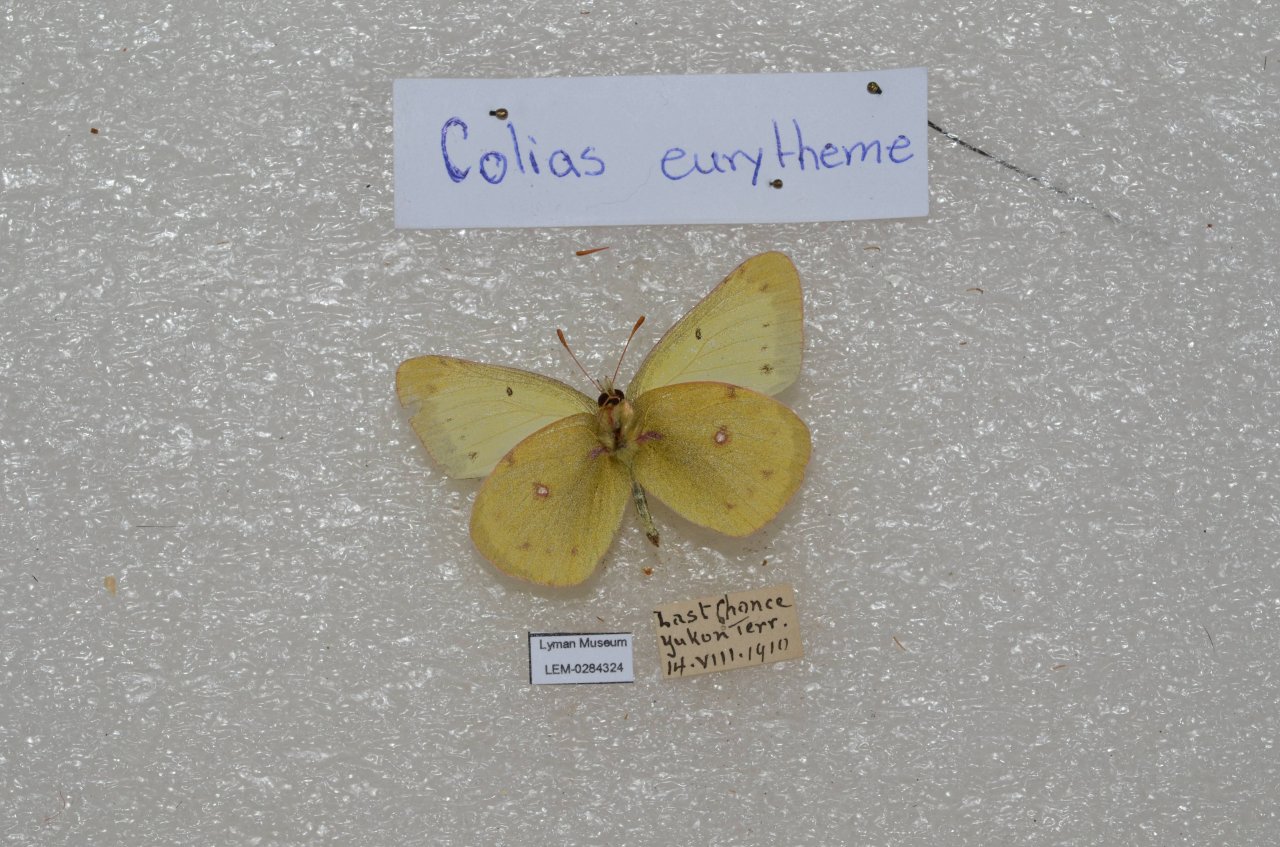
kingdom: Animalia
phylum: Arthropoda
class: Insecta
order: Lepidoptera
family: Pieridae
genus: Colias
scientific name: Colias philodice
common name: Clouded Sulphur
